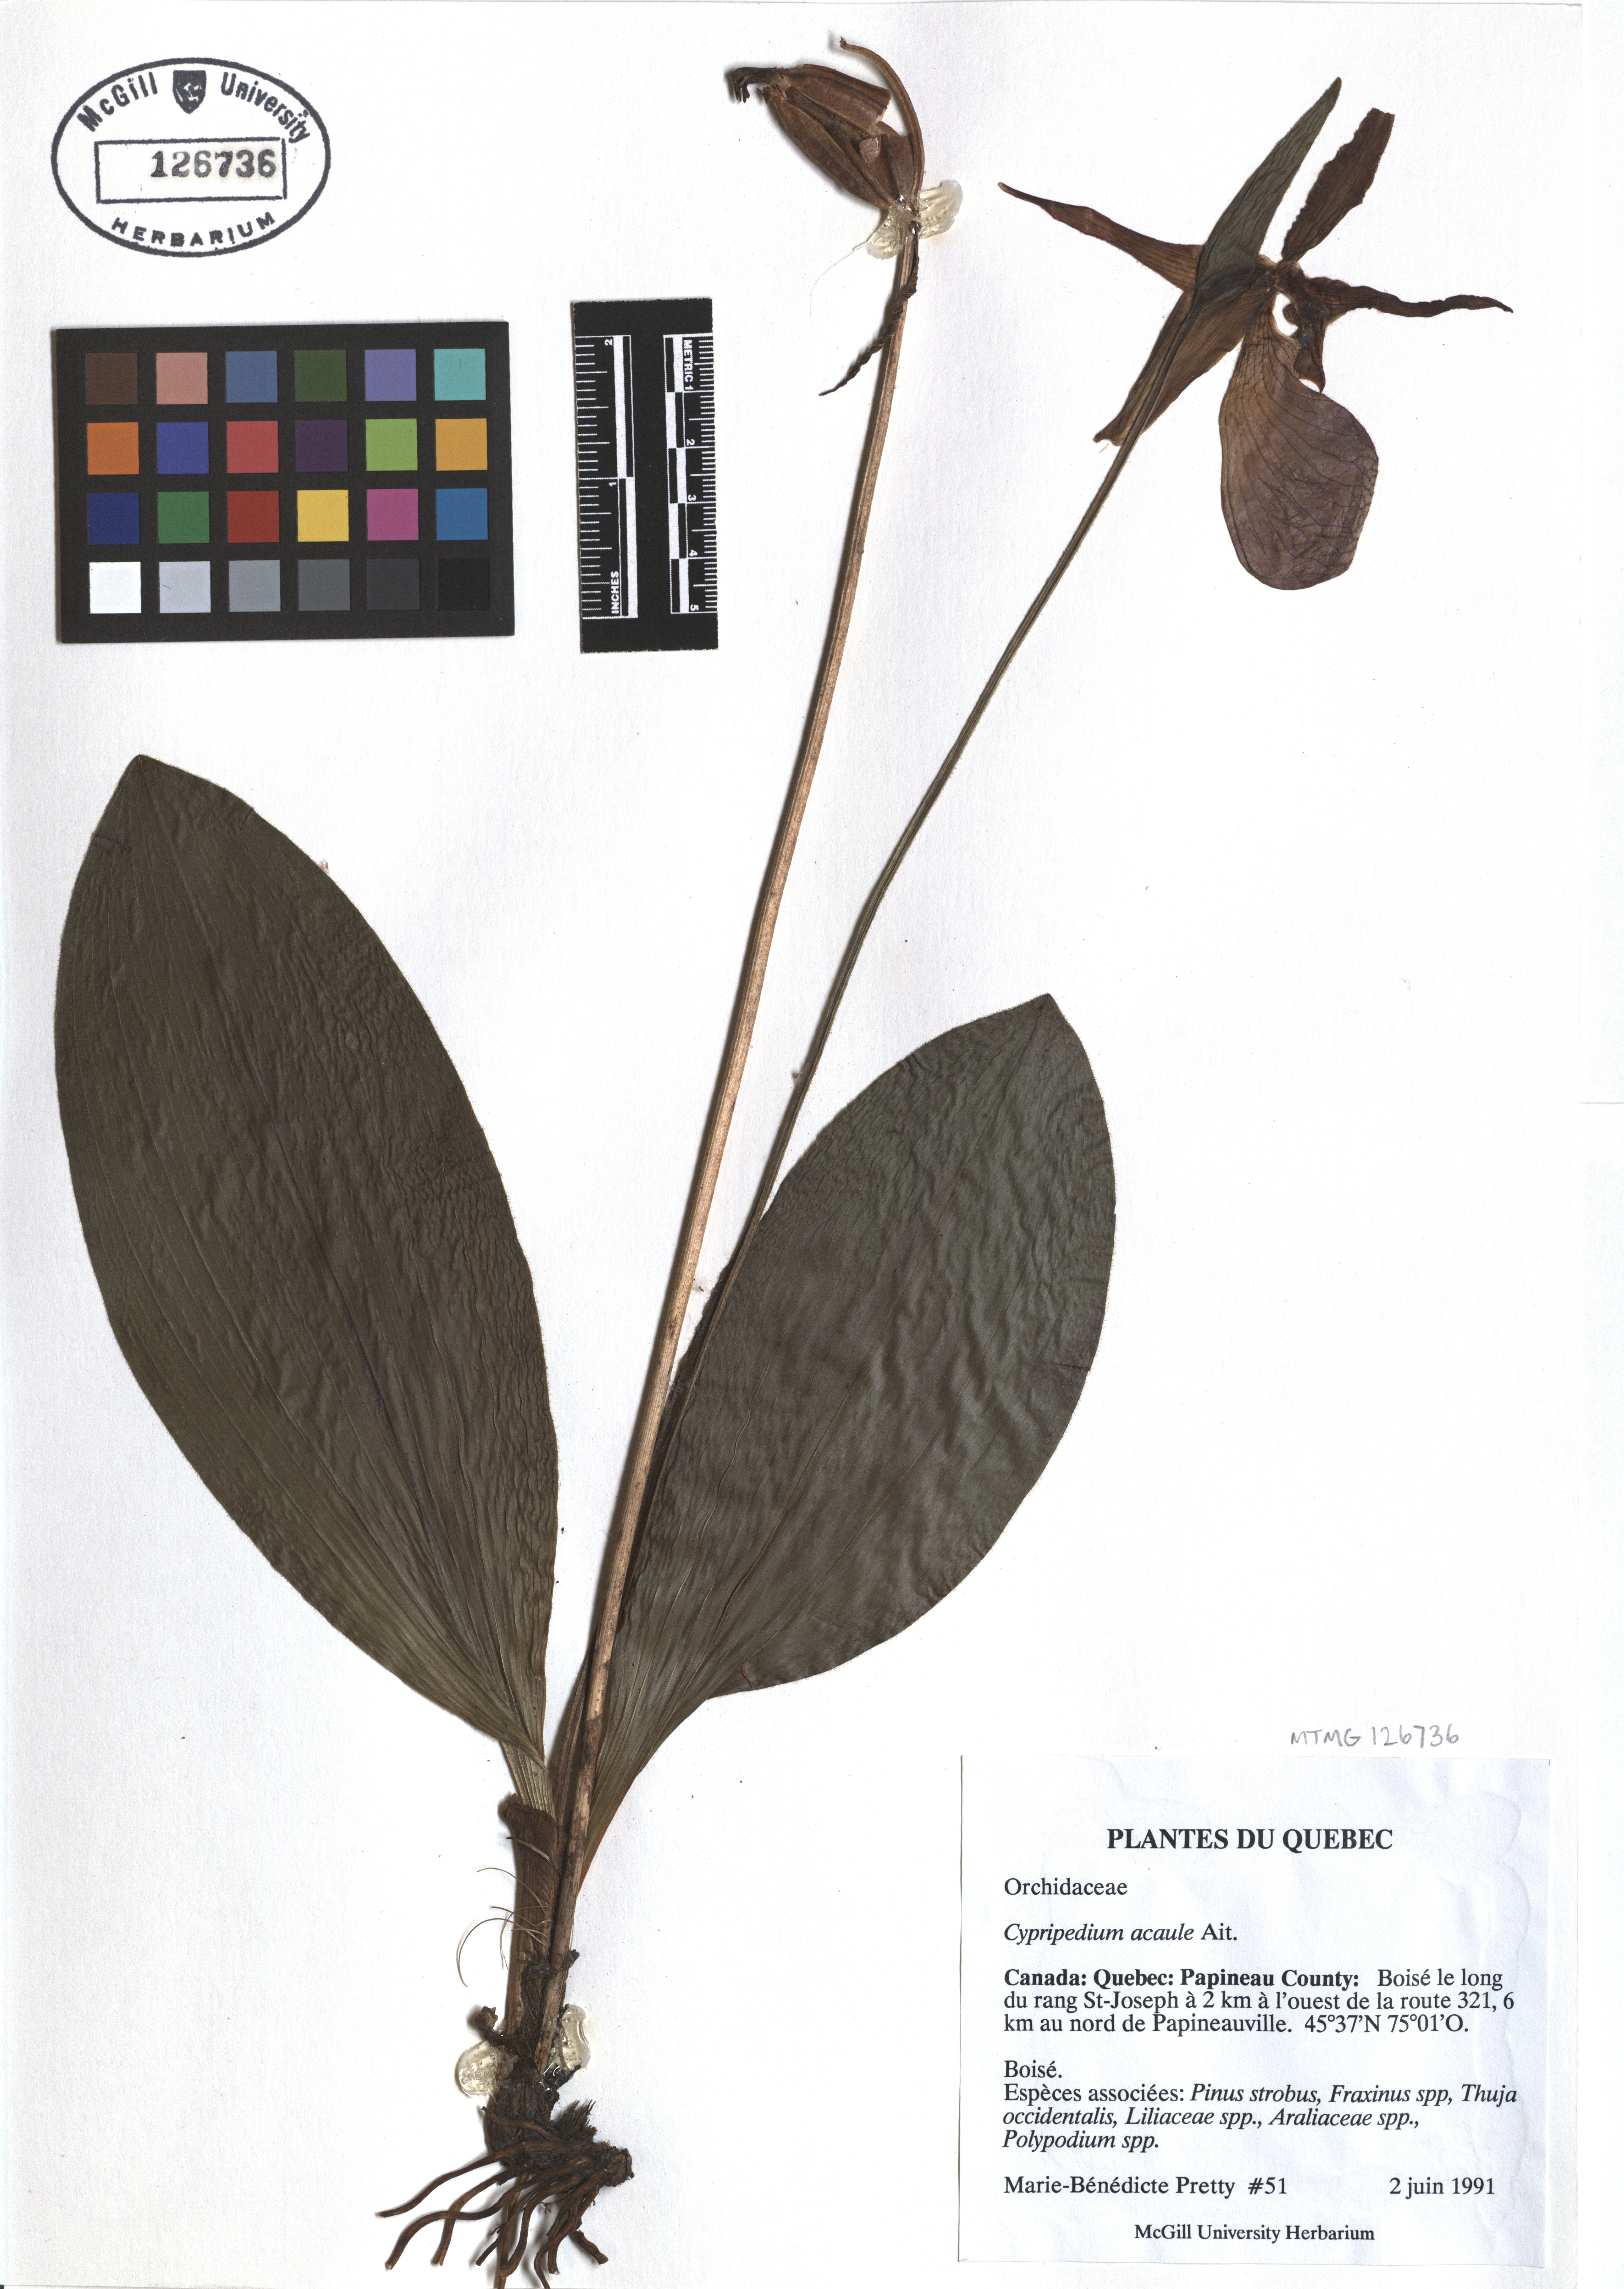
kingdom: Plantae
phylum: Tracheophyta
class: Liliopsida
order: Asparagales
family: Orchidaceae
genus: Cypripedium
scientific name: Cypripedium acaule
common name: Pink lady's-slipper
